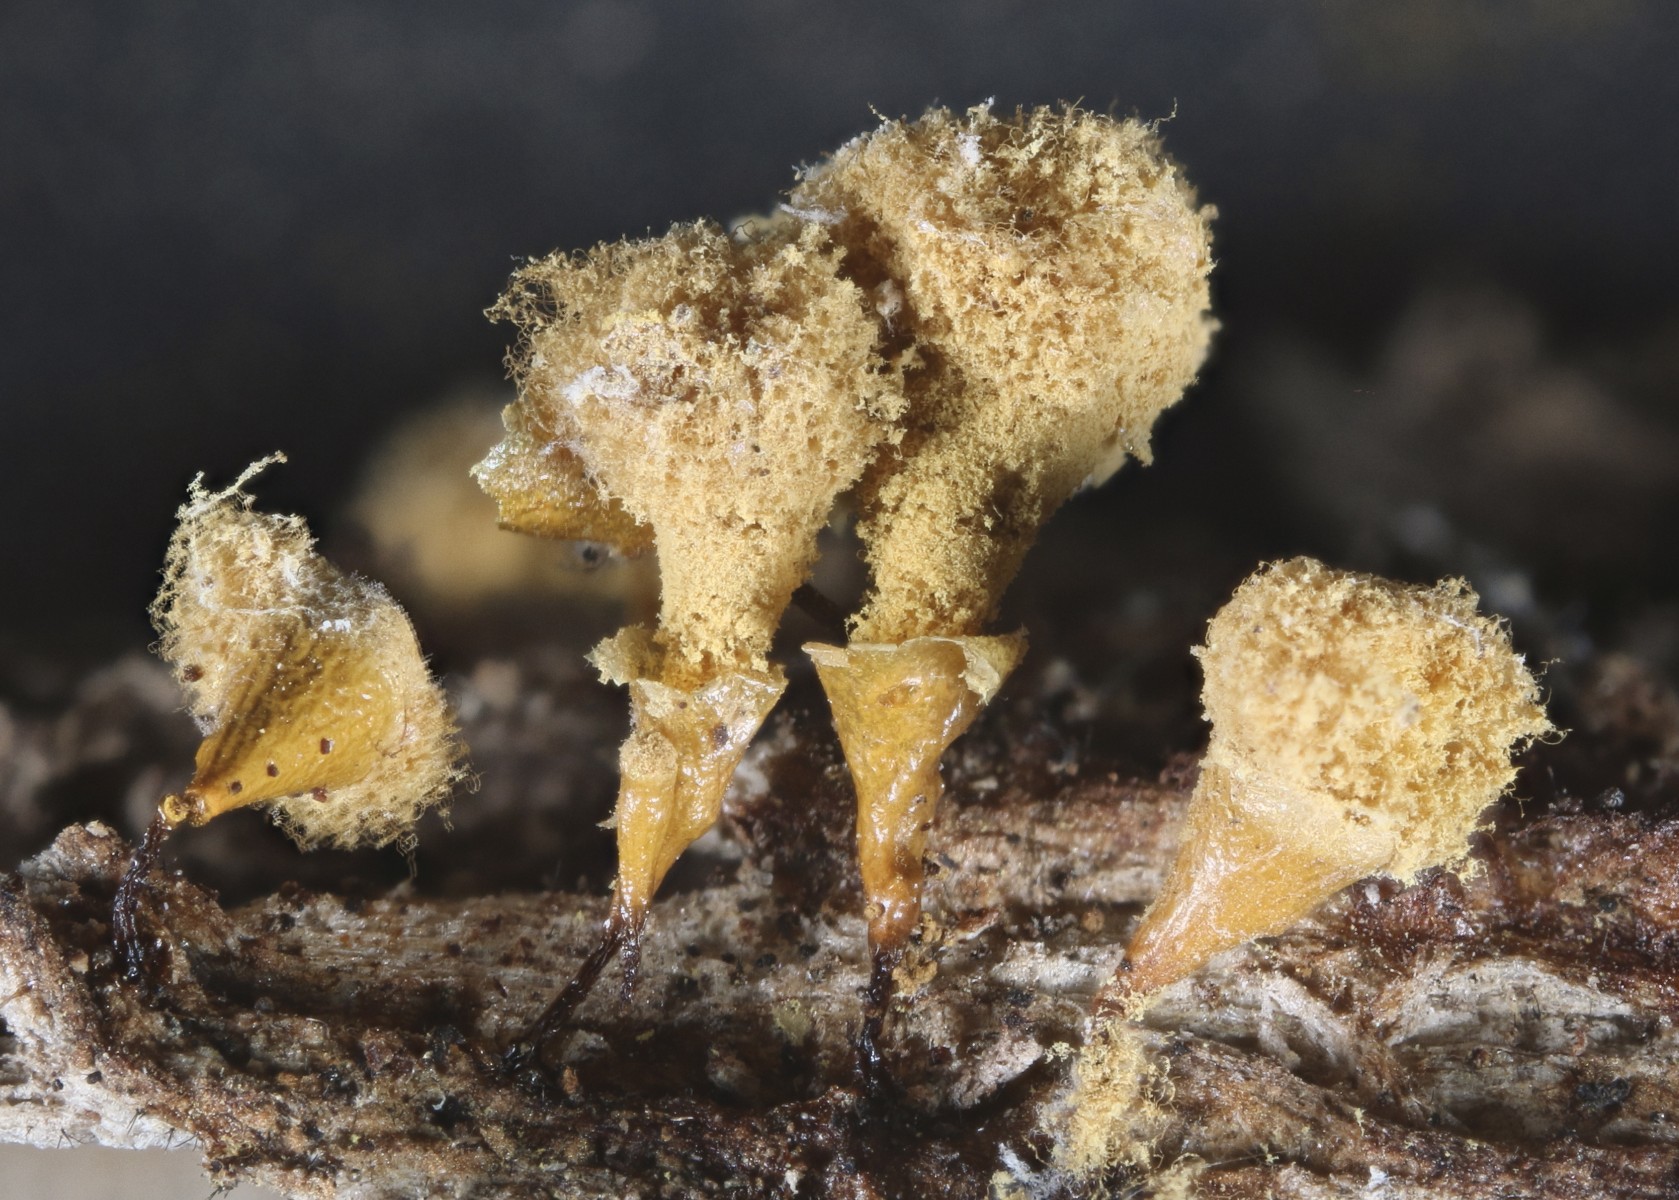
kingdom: Protozoa
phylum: Mycetozoa
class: Myxomycetes
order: Trichiales
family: Arcyriaceae
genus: Hemitrichia
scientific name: Hemitrichia clavata
